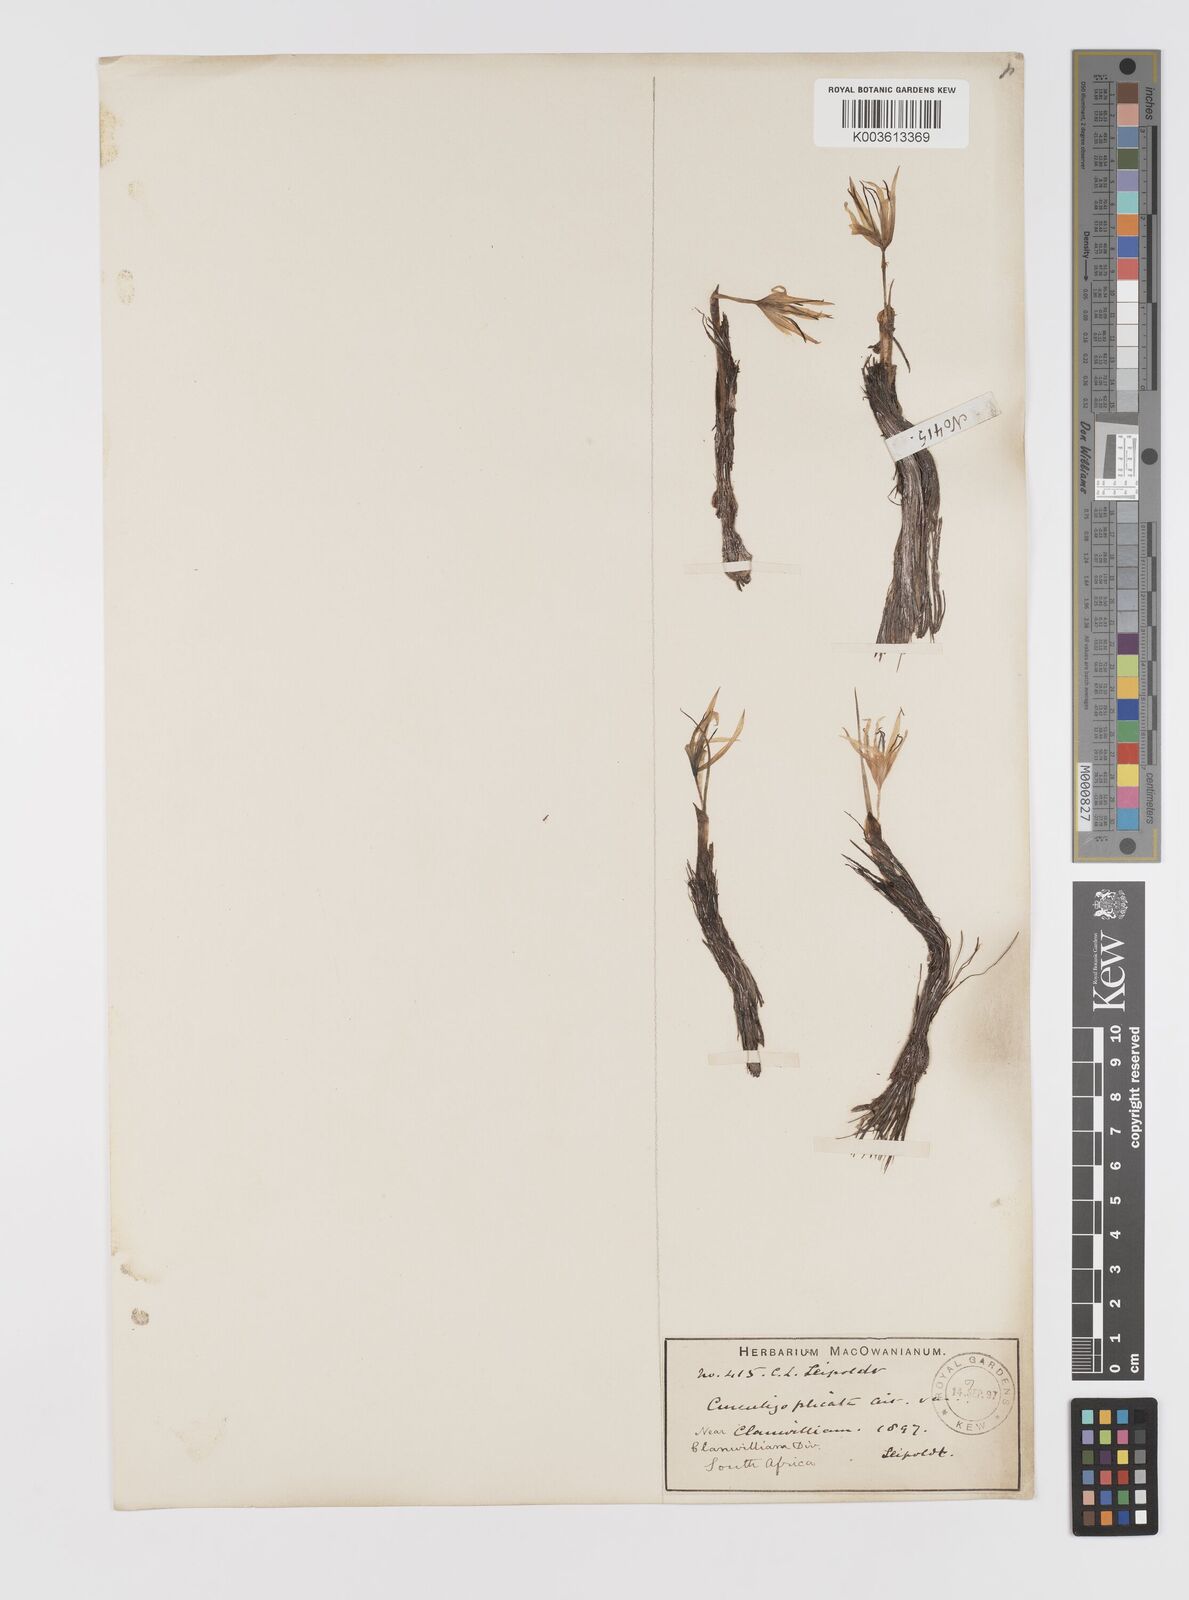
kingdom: Plantae
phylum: Tracheophyta
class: Liliopsida
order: Asparagales
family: Hypoxidaceae
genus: Empodium
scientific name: Empodium
